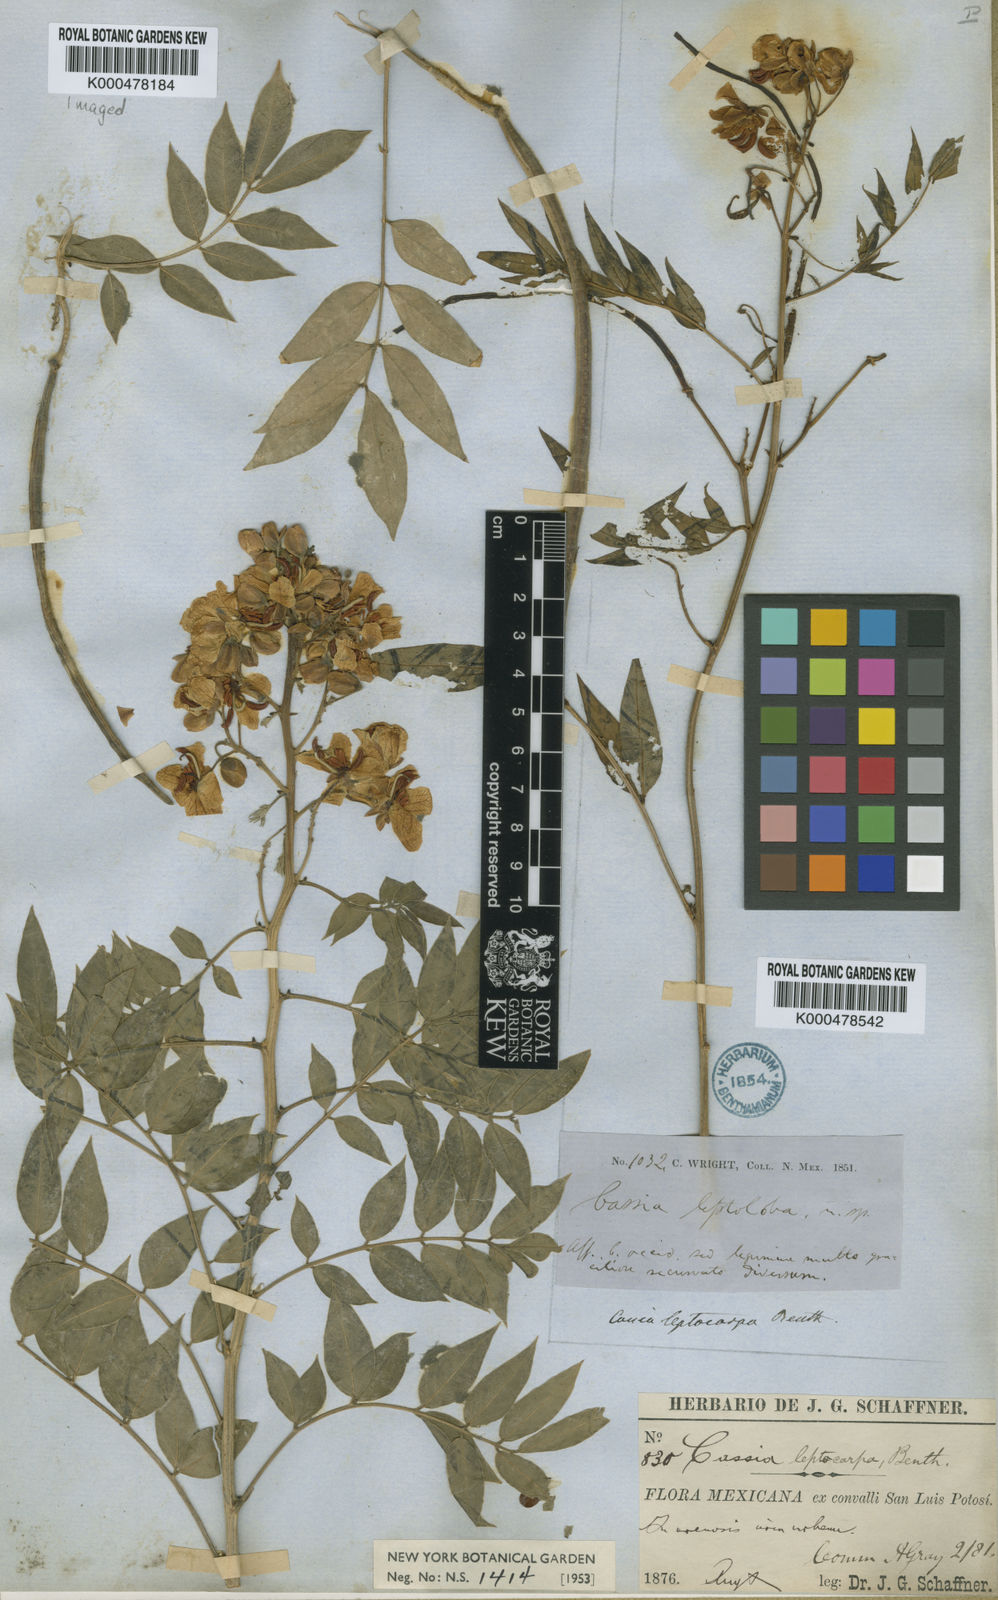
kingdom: Plantae
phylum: Tracheophyta
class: Magnoliopsida
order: Fabales
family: Fabaceae
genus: Senna
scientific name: Senna hirsuta
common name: Woolly senna
